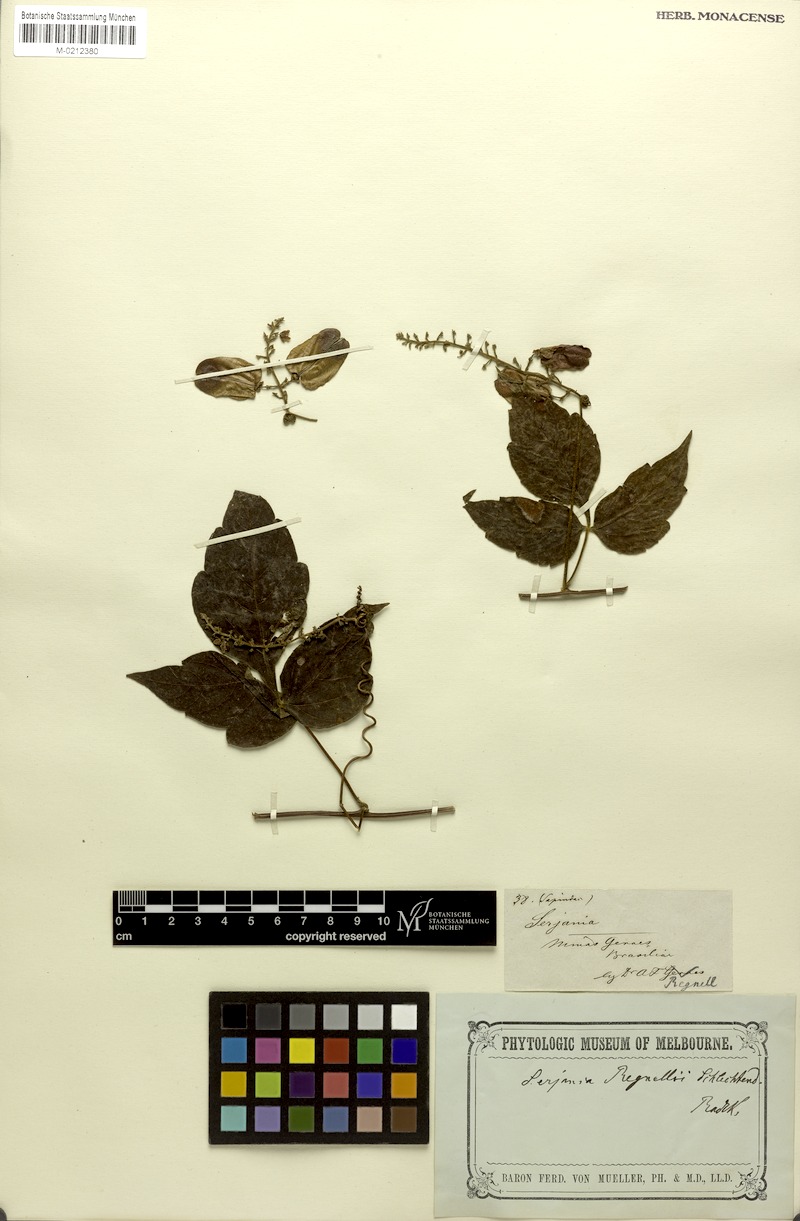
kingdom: Plantae
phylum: Tracheophyta
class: Magnoliopsida
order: Sapindales
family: Sapindaceae
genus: Serjania
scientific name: Serjania regnellii
